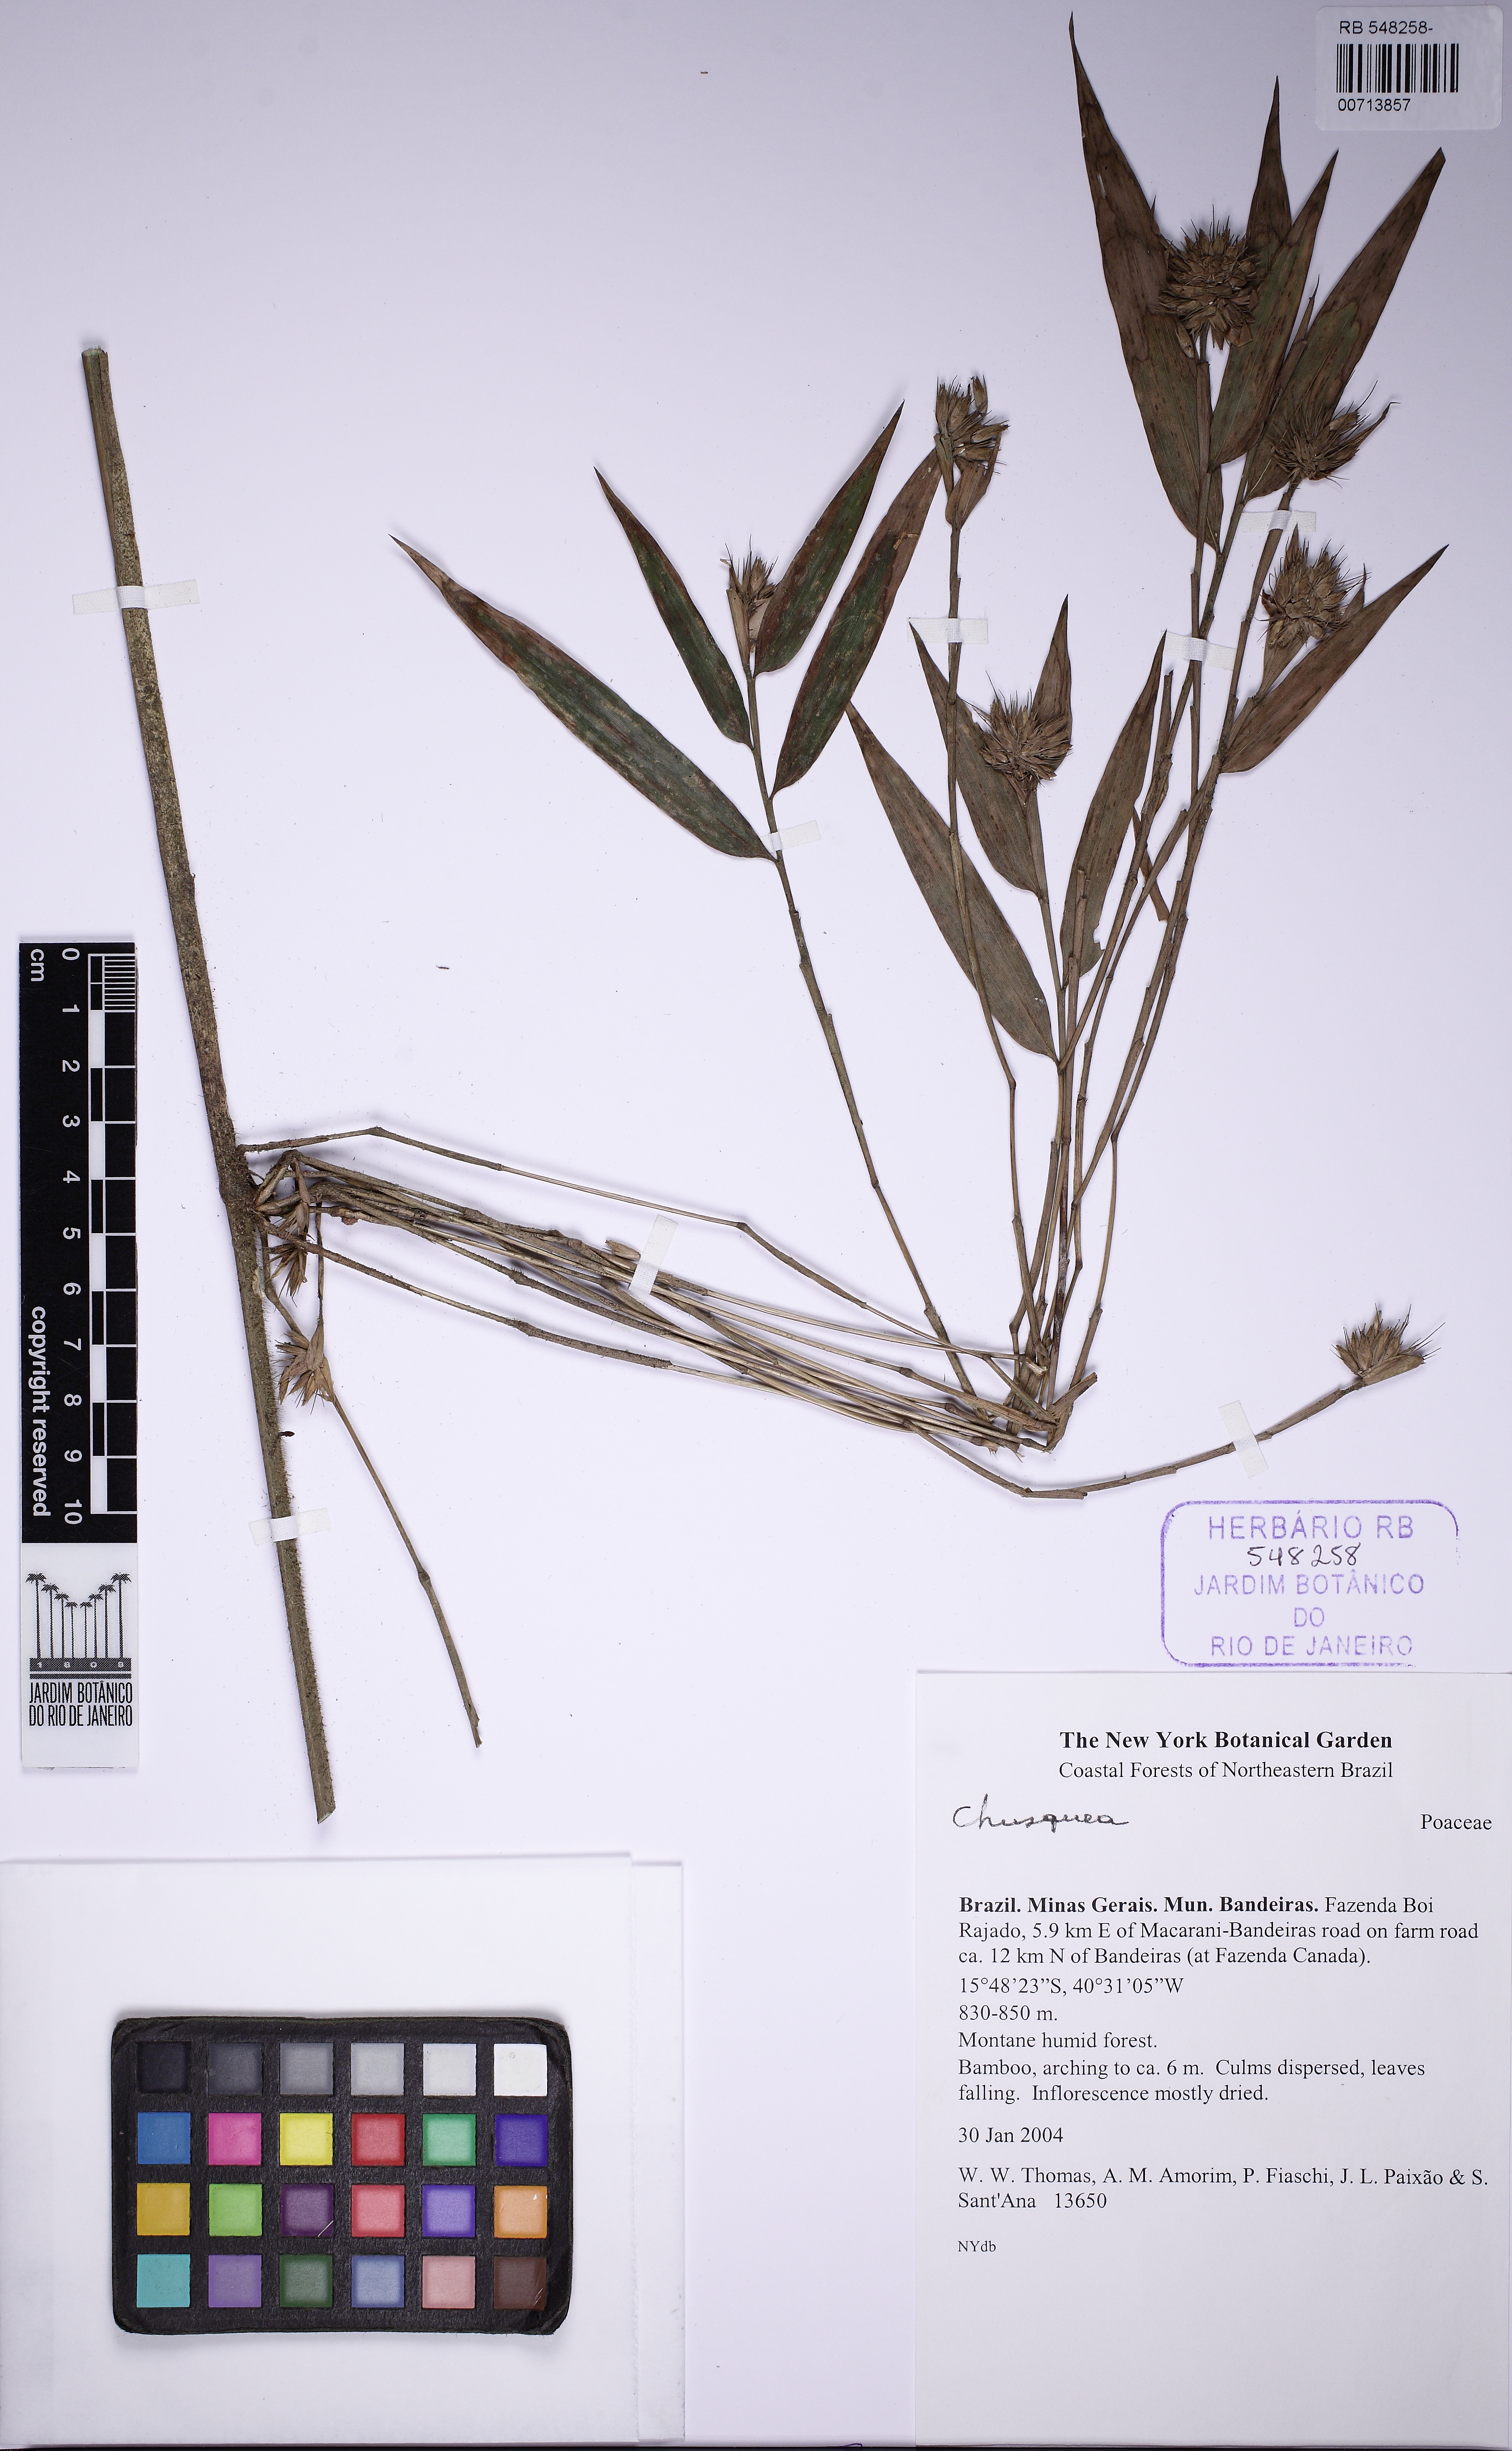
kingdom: Plantae
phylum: Tracheophyta
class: Liliopsida
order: Poales
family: Poaceae
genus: Chusquea
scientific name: Chusquea bradei
